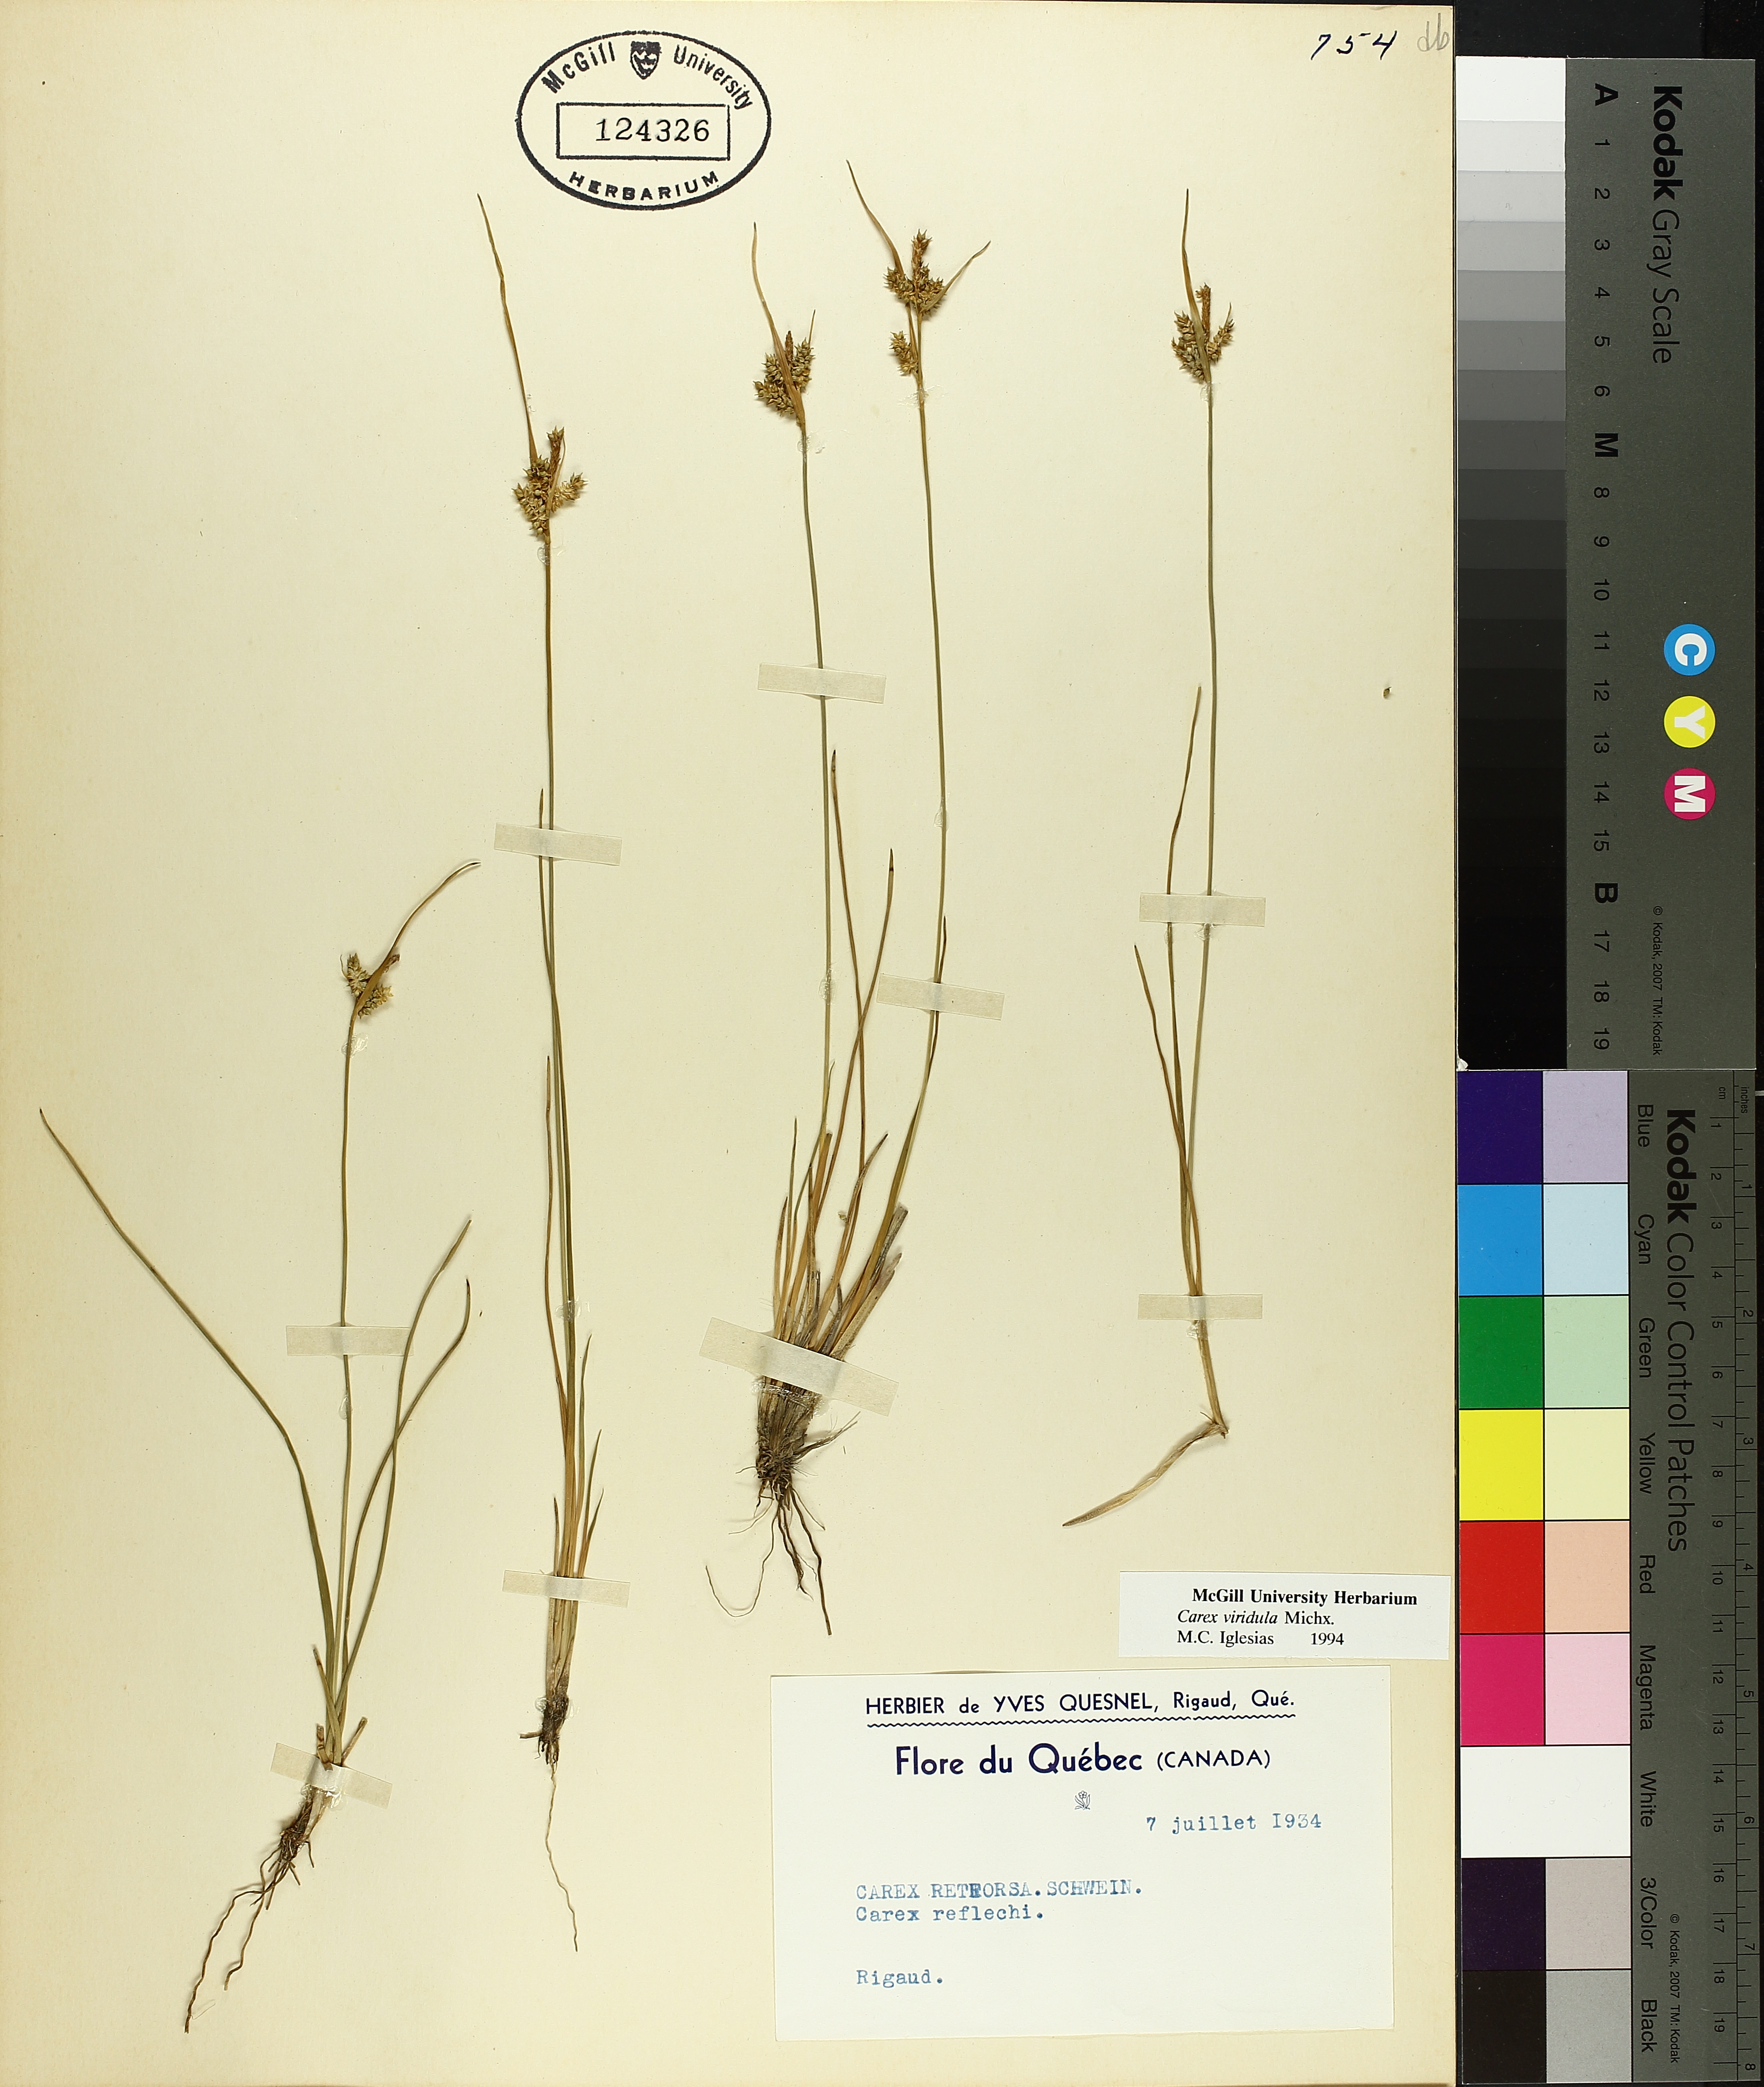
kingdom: Plantae
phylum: Tracheophyta
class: Liliopsida
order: Poales
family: Cyperaceae
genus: Carex
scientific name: Carex oederi
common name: Common & small-fruited yellow-sedge
